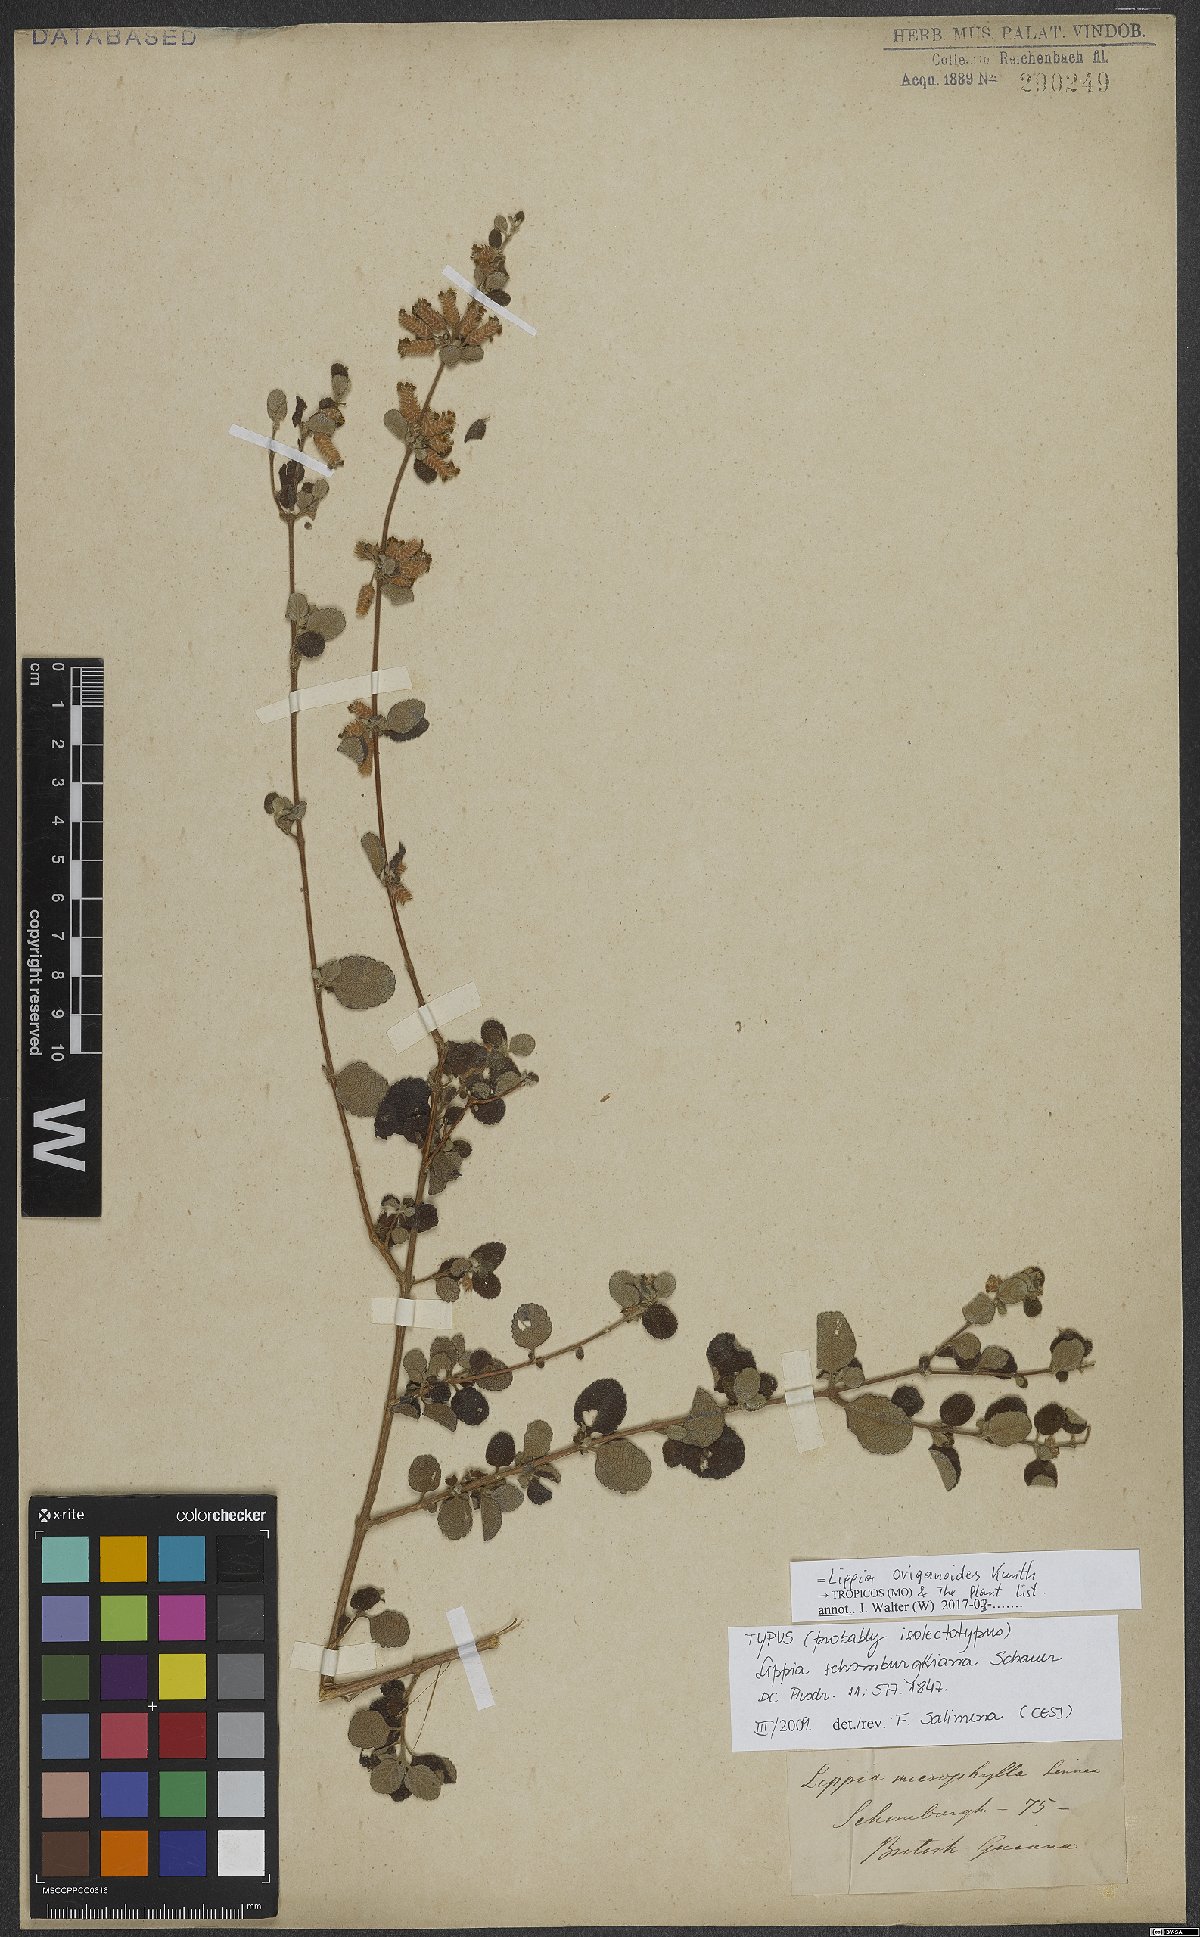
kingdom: Plantae
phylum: Tracheophyta
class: Magnoliopsida
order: Lamiales
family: Verbenaceae
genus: Lippia
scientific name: Lippia origanoides
